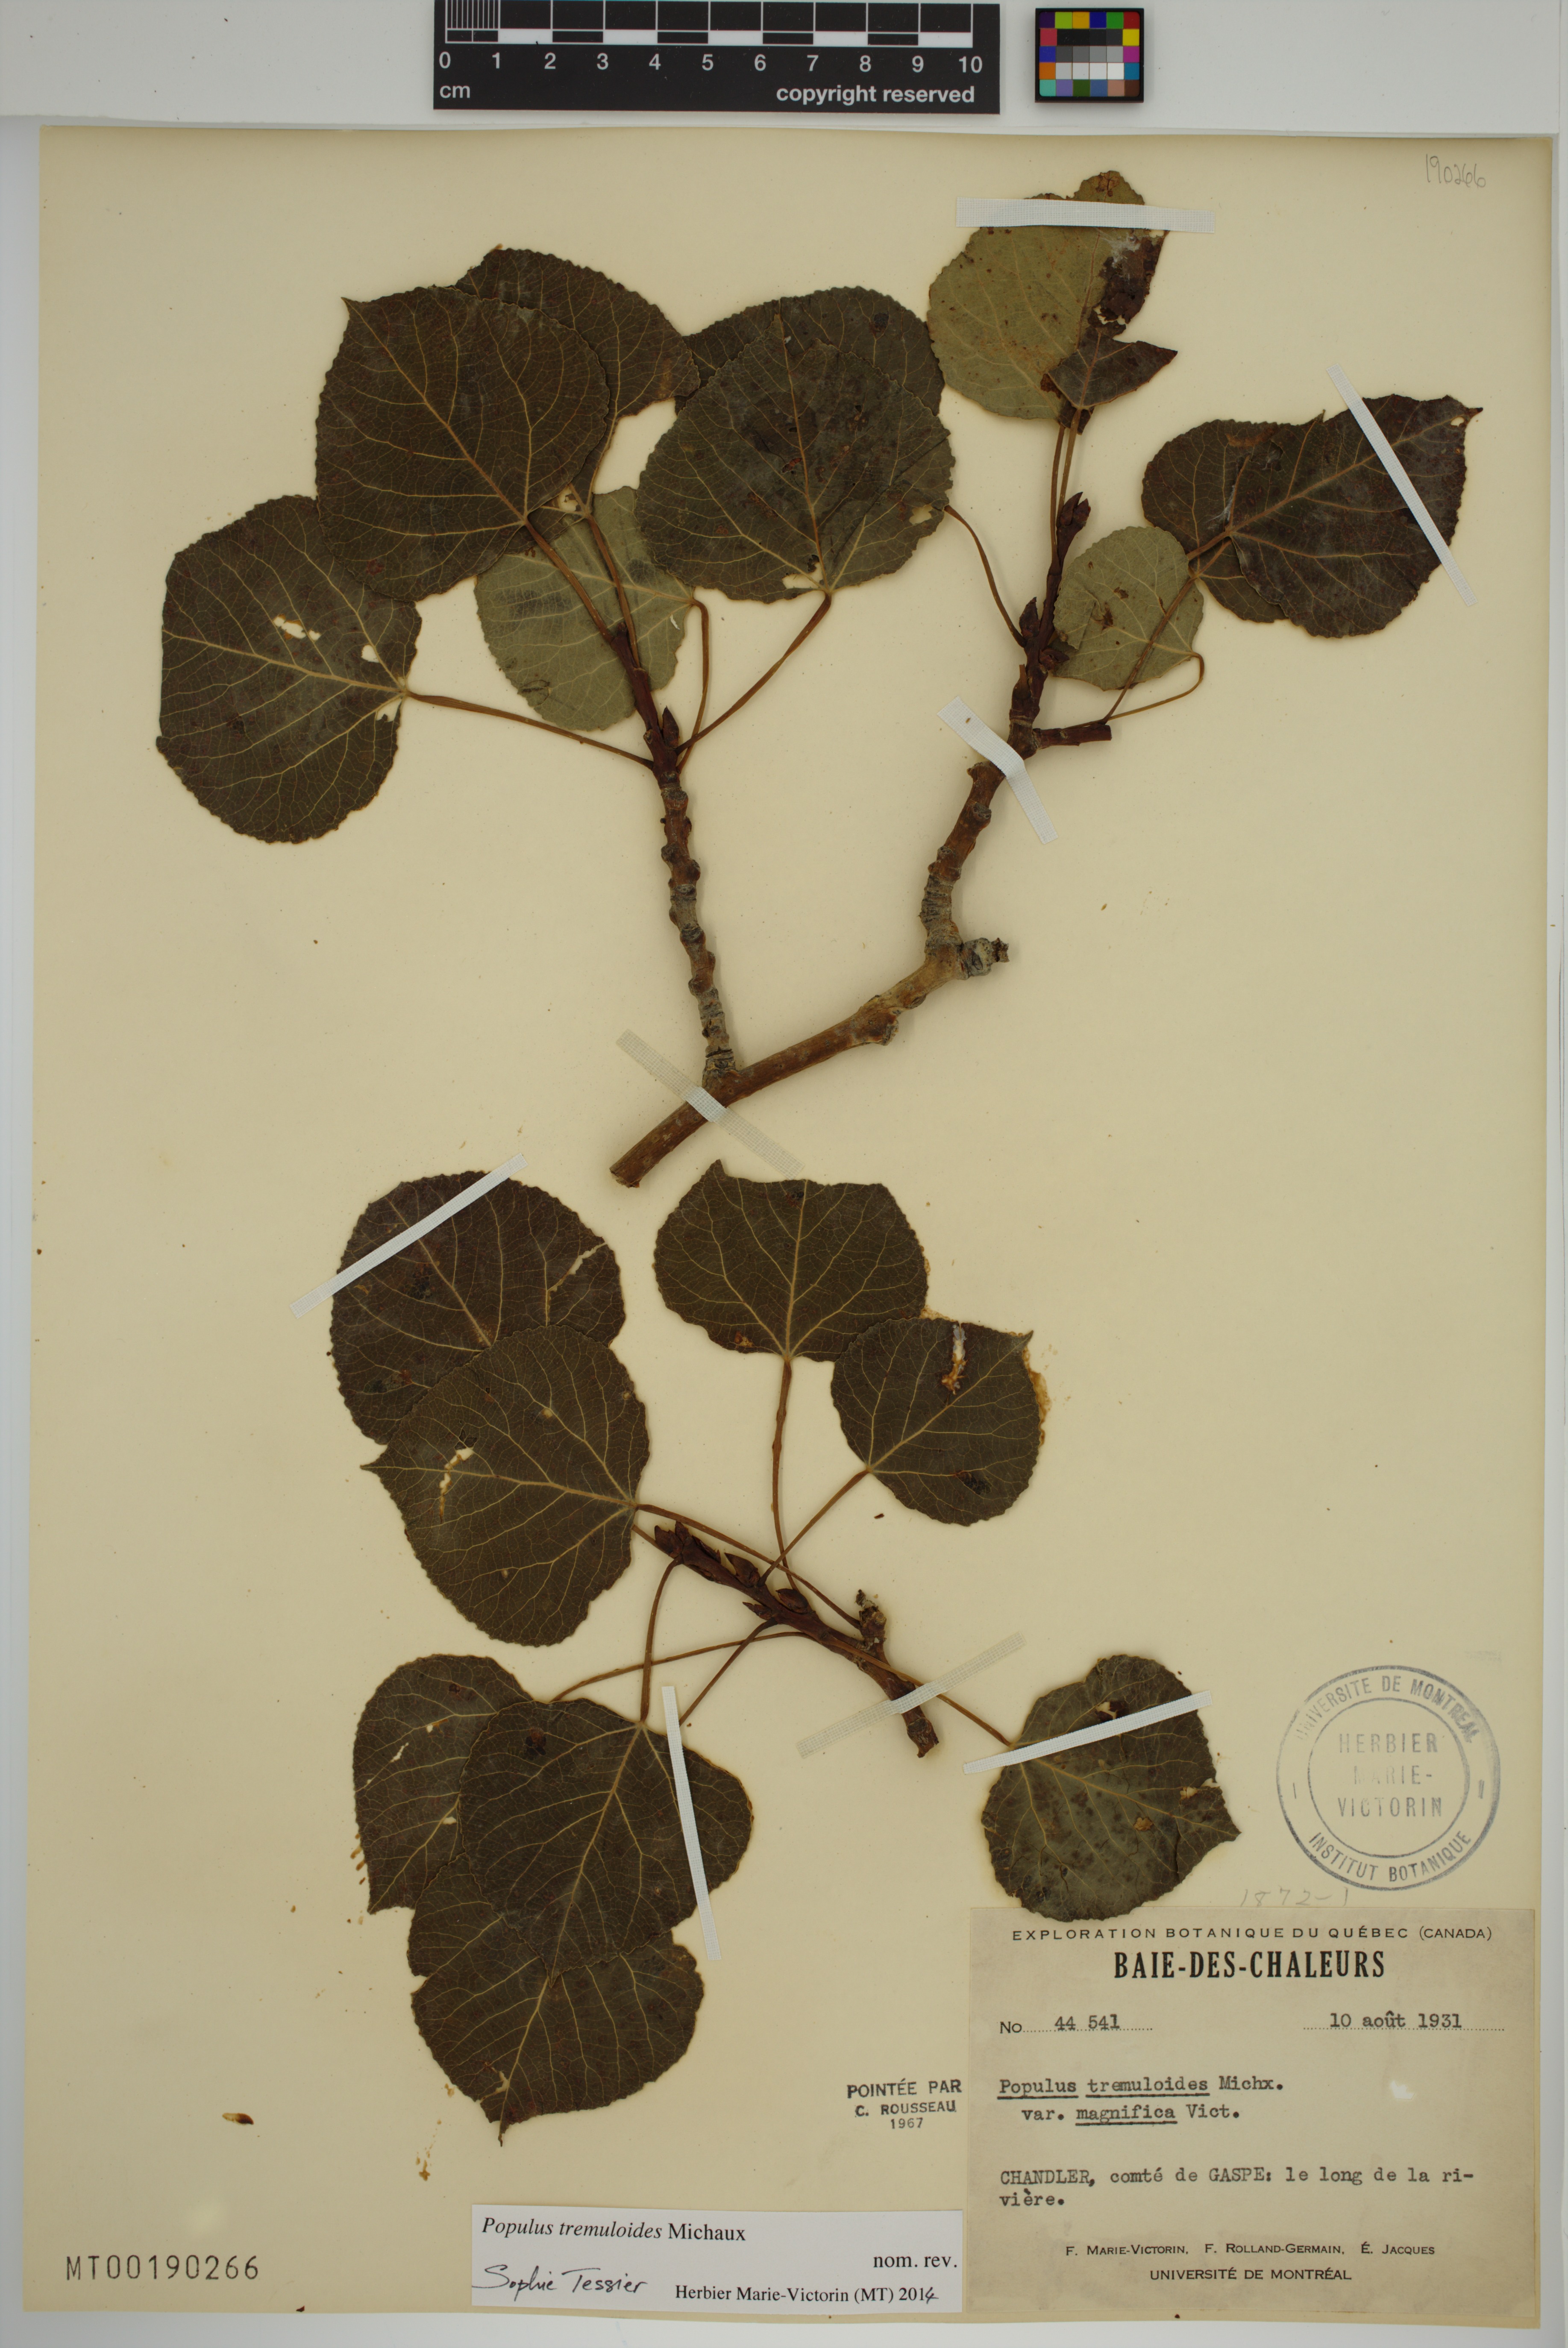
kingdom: Plantae
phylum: Tracheophyta
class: Magnoliopsida
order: Malpighiales
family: Salicaceae
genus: Populus
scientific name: Populus tremuloides
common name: Quaking aspen
